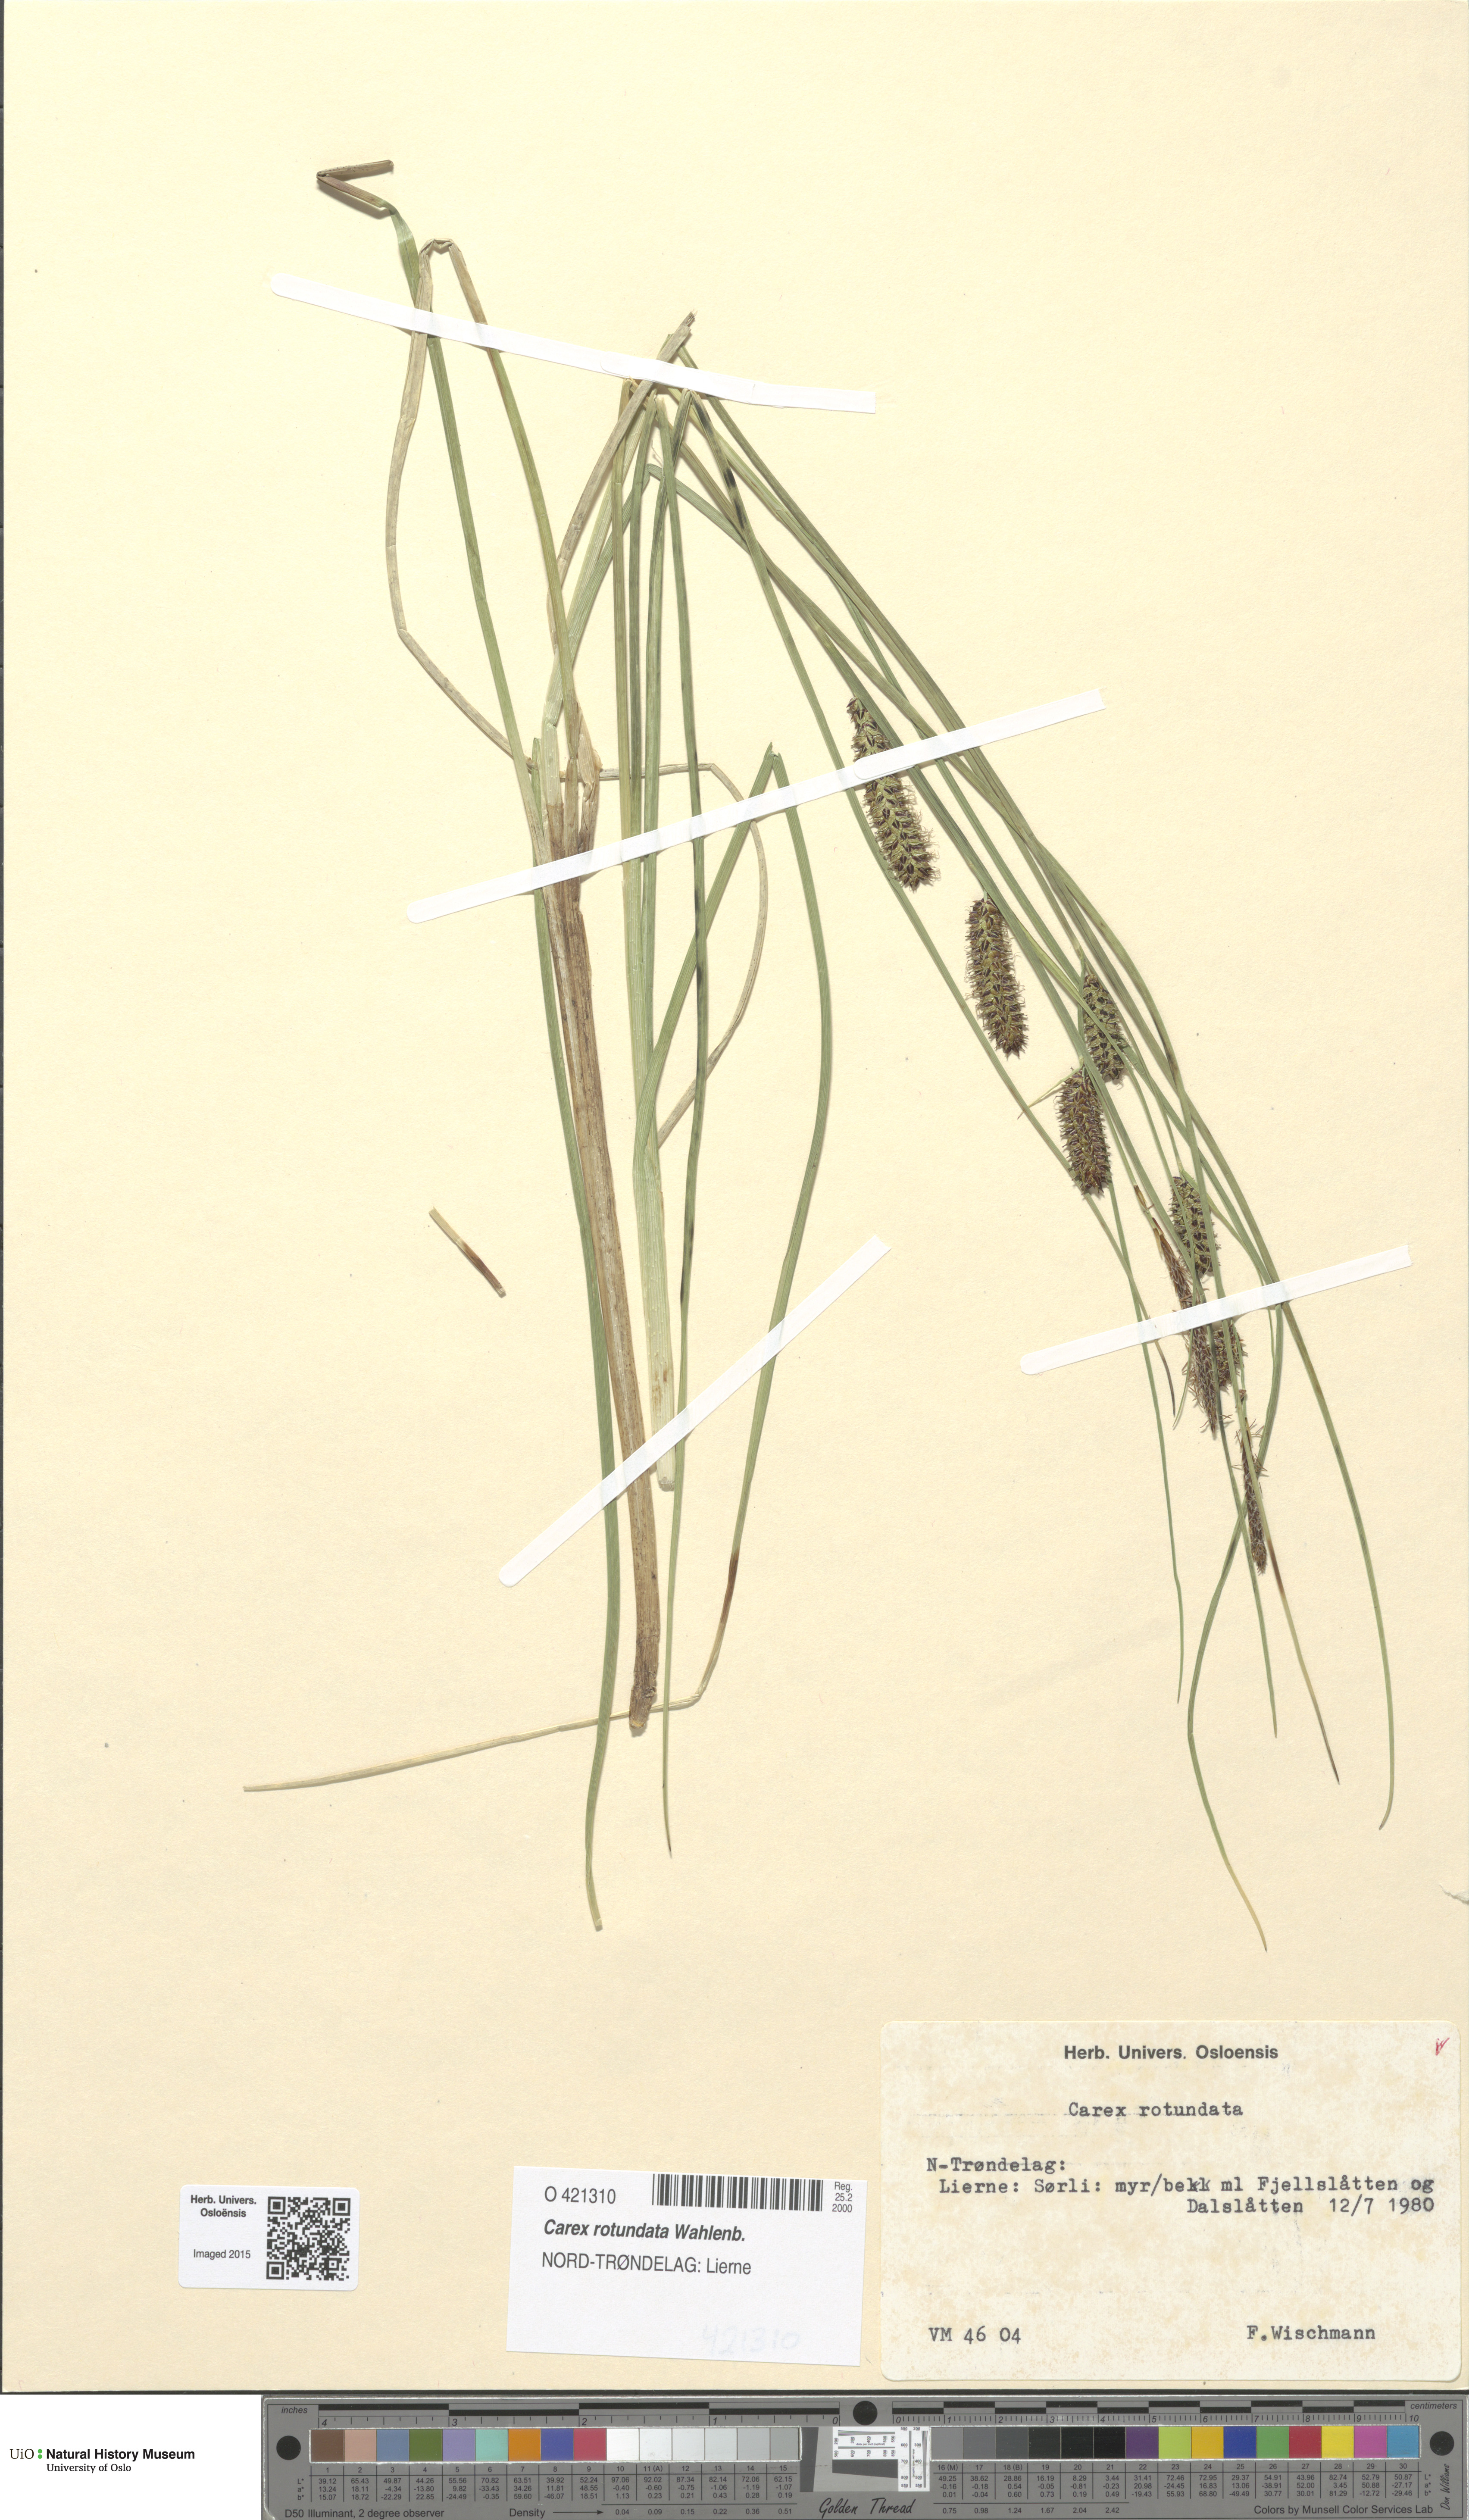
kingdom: Plantae
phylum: Tracheophyta
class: Liliopsida
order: Poales
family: Cyperaceae
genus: Carex
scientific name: Carex rotundata
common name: Round-fruited sedge
